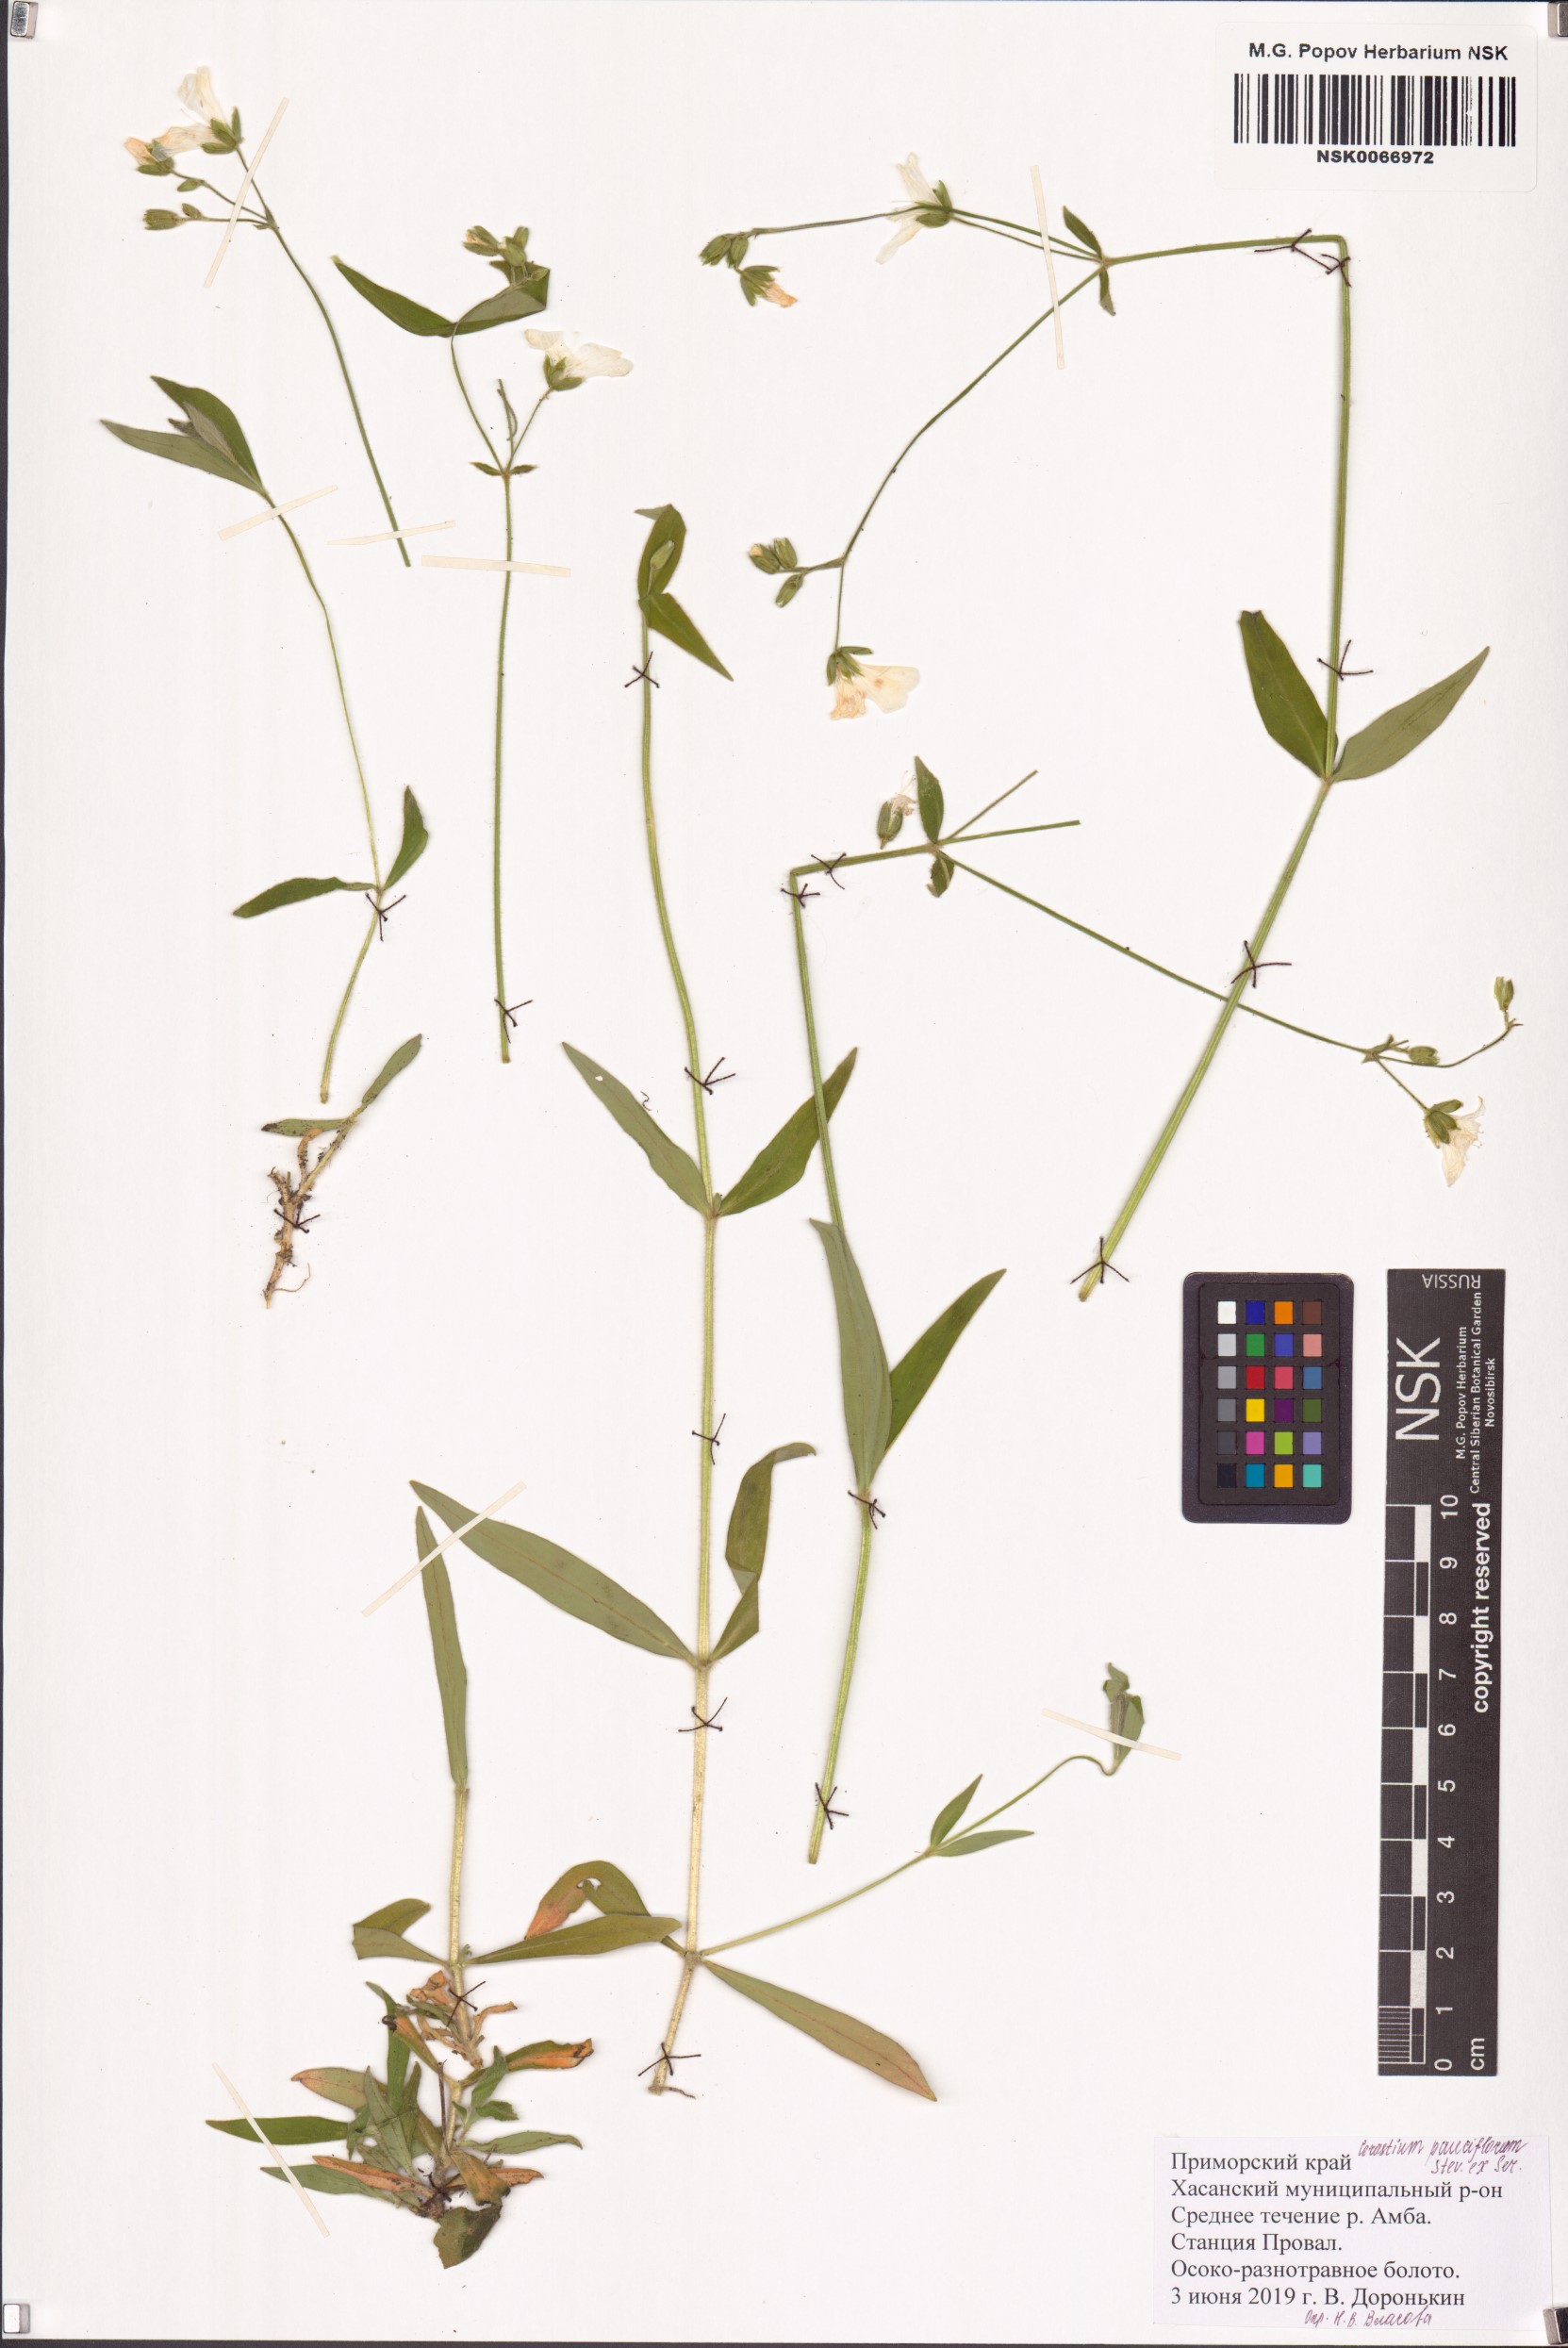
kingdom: Plantae
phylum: Tracheophyta
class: Magnoliopsida
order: Caryophyllales
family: Caryophyllaceae
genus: Cerastium
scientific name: Cerastium pauciflorum
